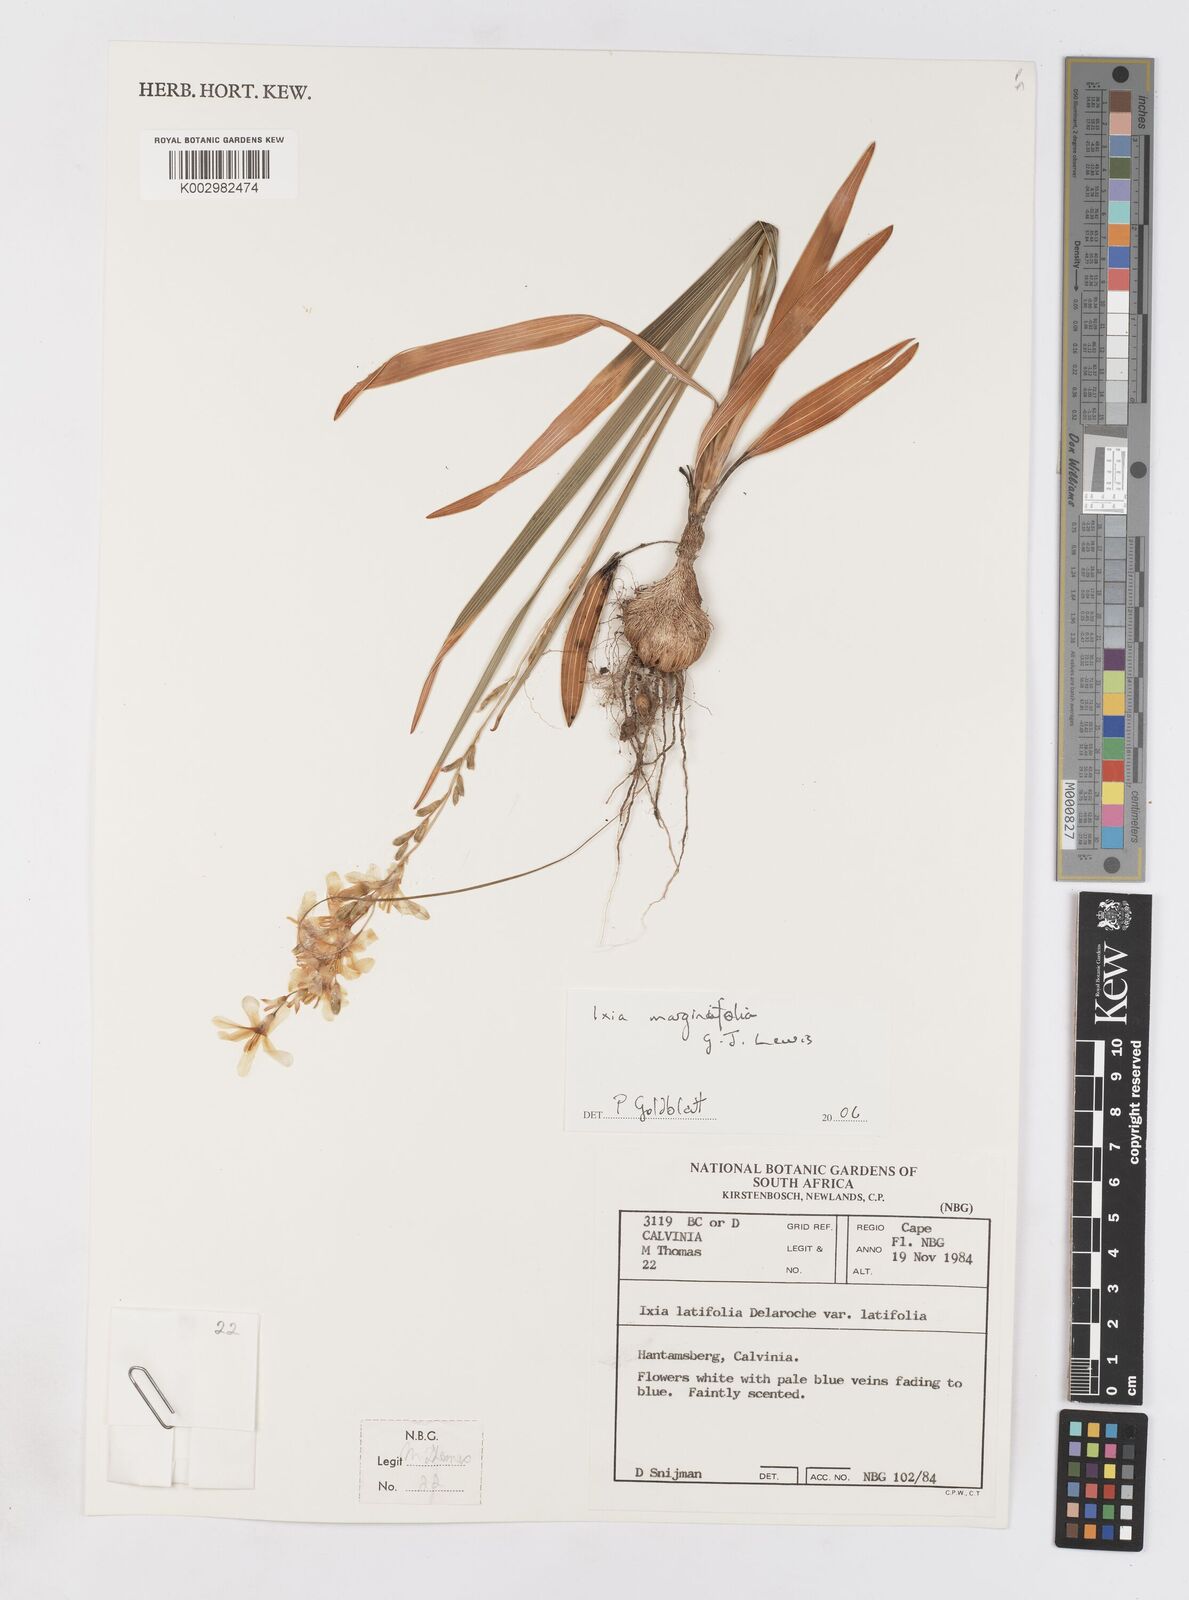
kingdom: Plantae
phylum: Tracheophyta
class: Liliopsida
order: Asparagales
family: Iridaceae
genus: Ixia
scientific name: Ixia marginifolia
